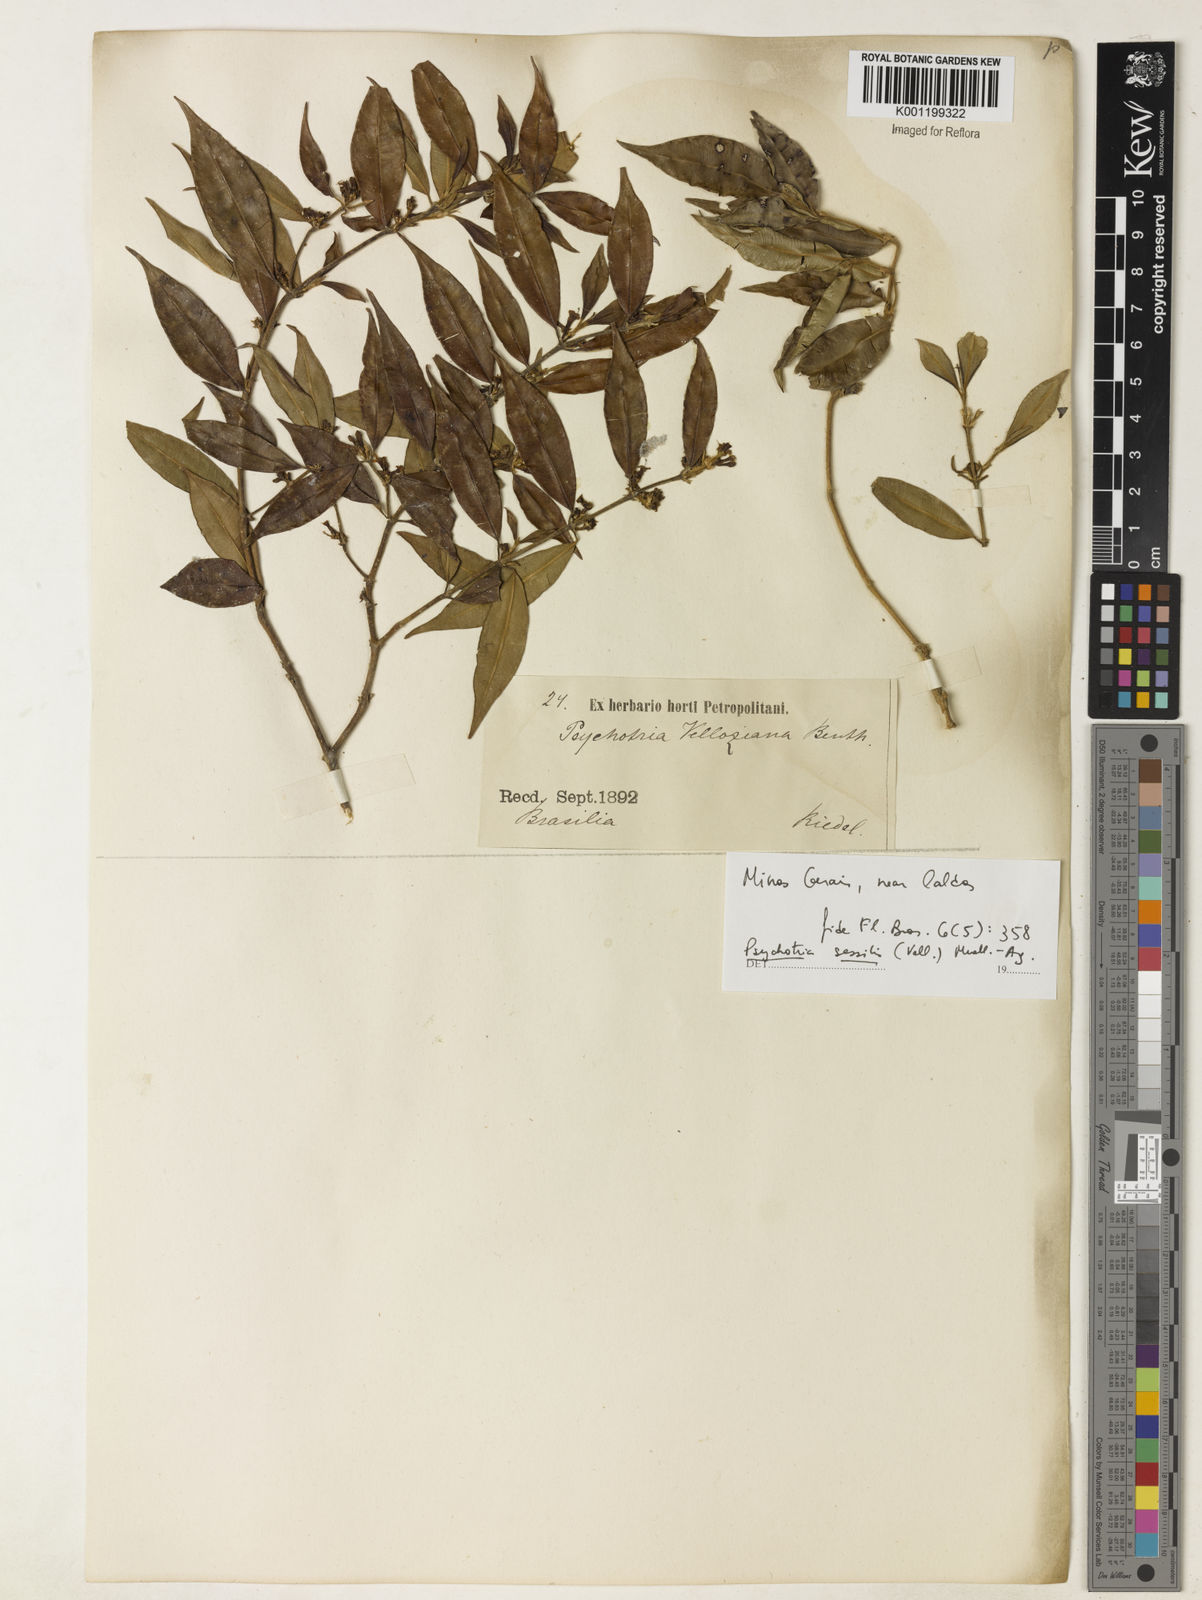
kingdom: Plantae
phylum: Tracheophyta
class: Magnoliopsida
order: Gentianales
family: Rubiaceae
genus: Rudgea
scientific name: Rudgea sessilis
